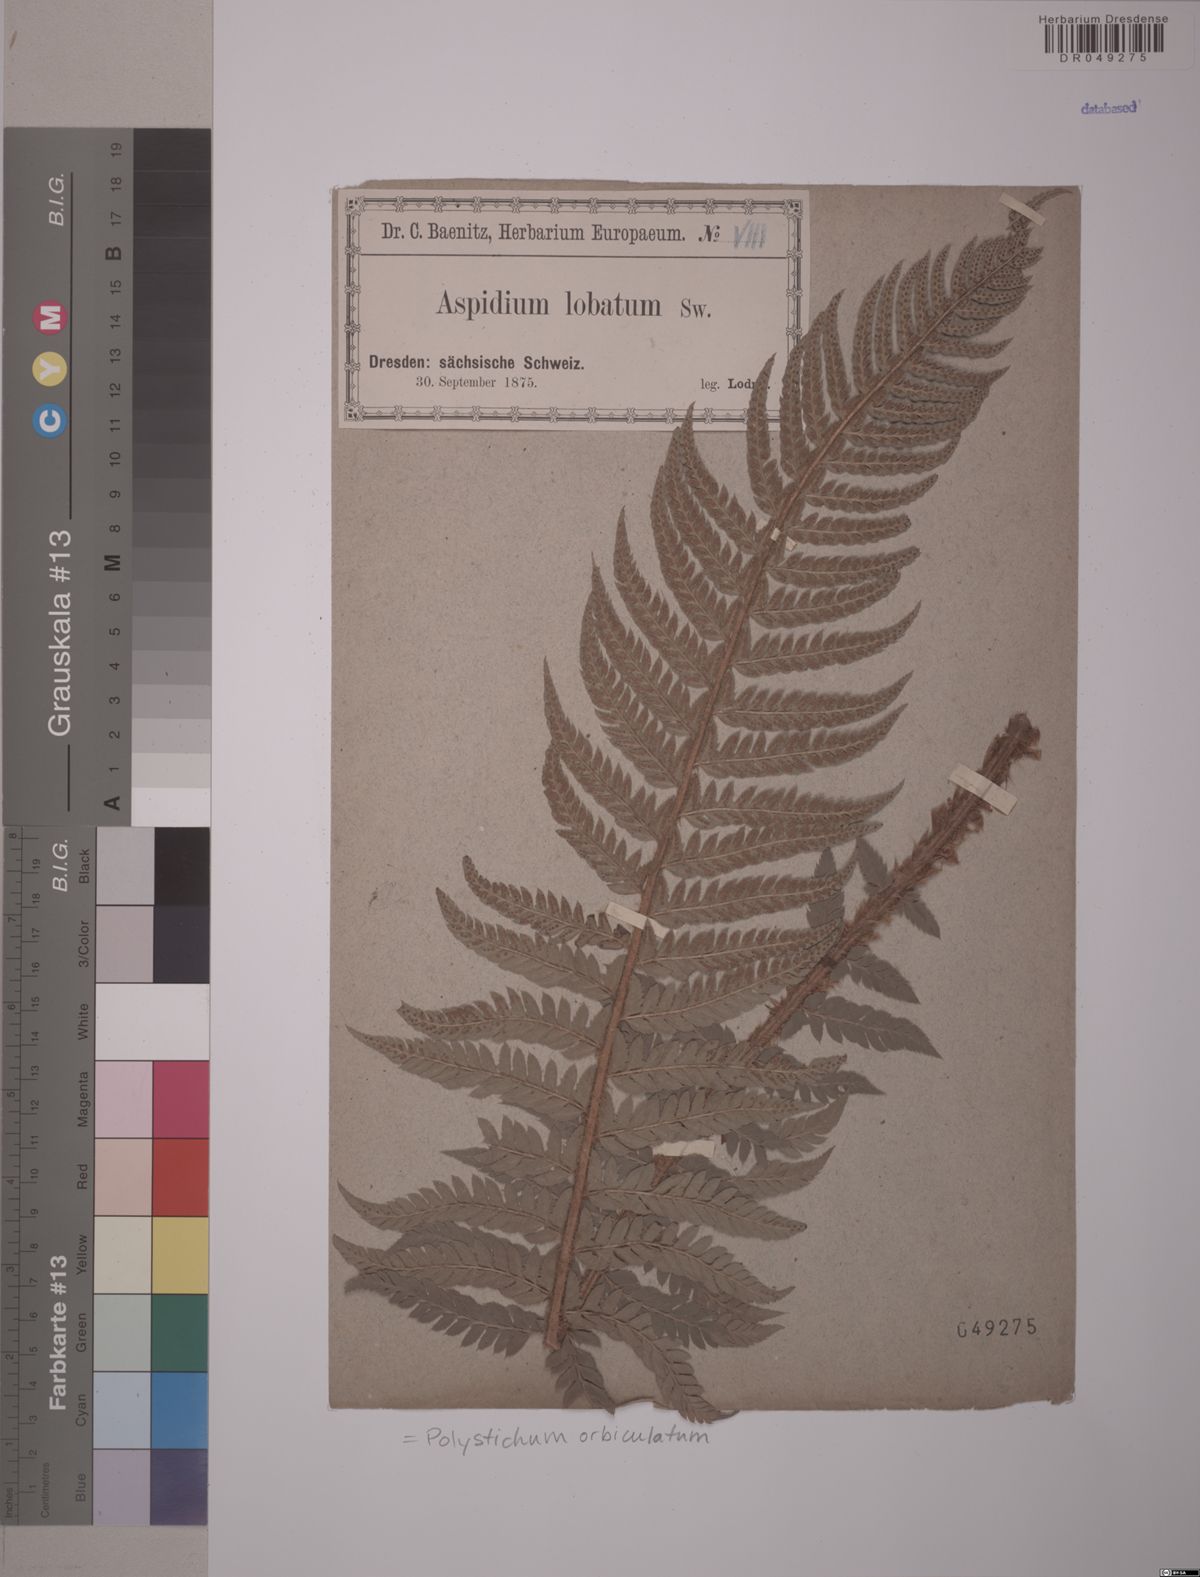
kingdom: Plantae
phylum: Tracheophyta
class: Polypodiopsida
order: Polypodiales
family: Dryopteridaceae
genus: Polystichum
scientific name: Polystichum aculeatum
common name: Hard shield-fern
